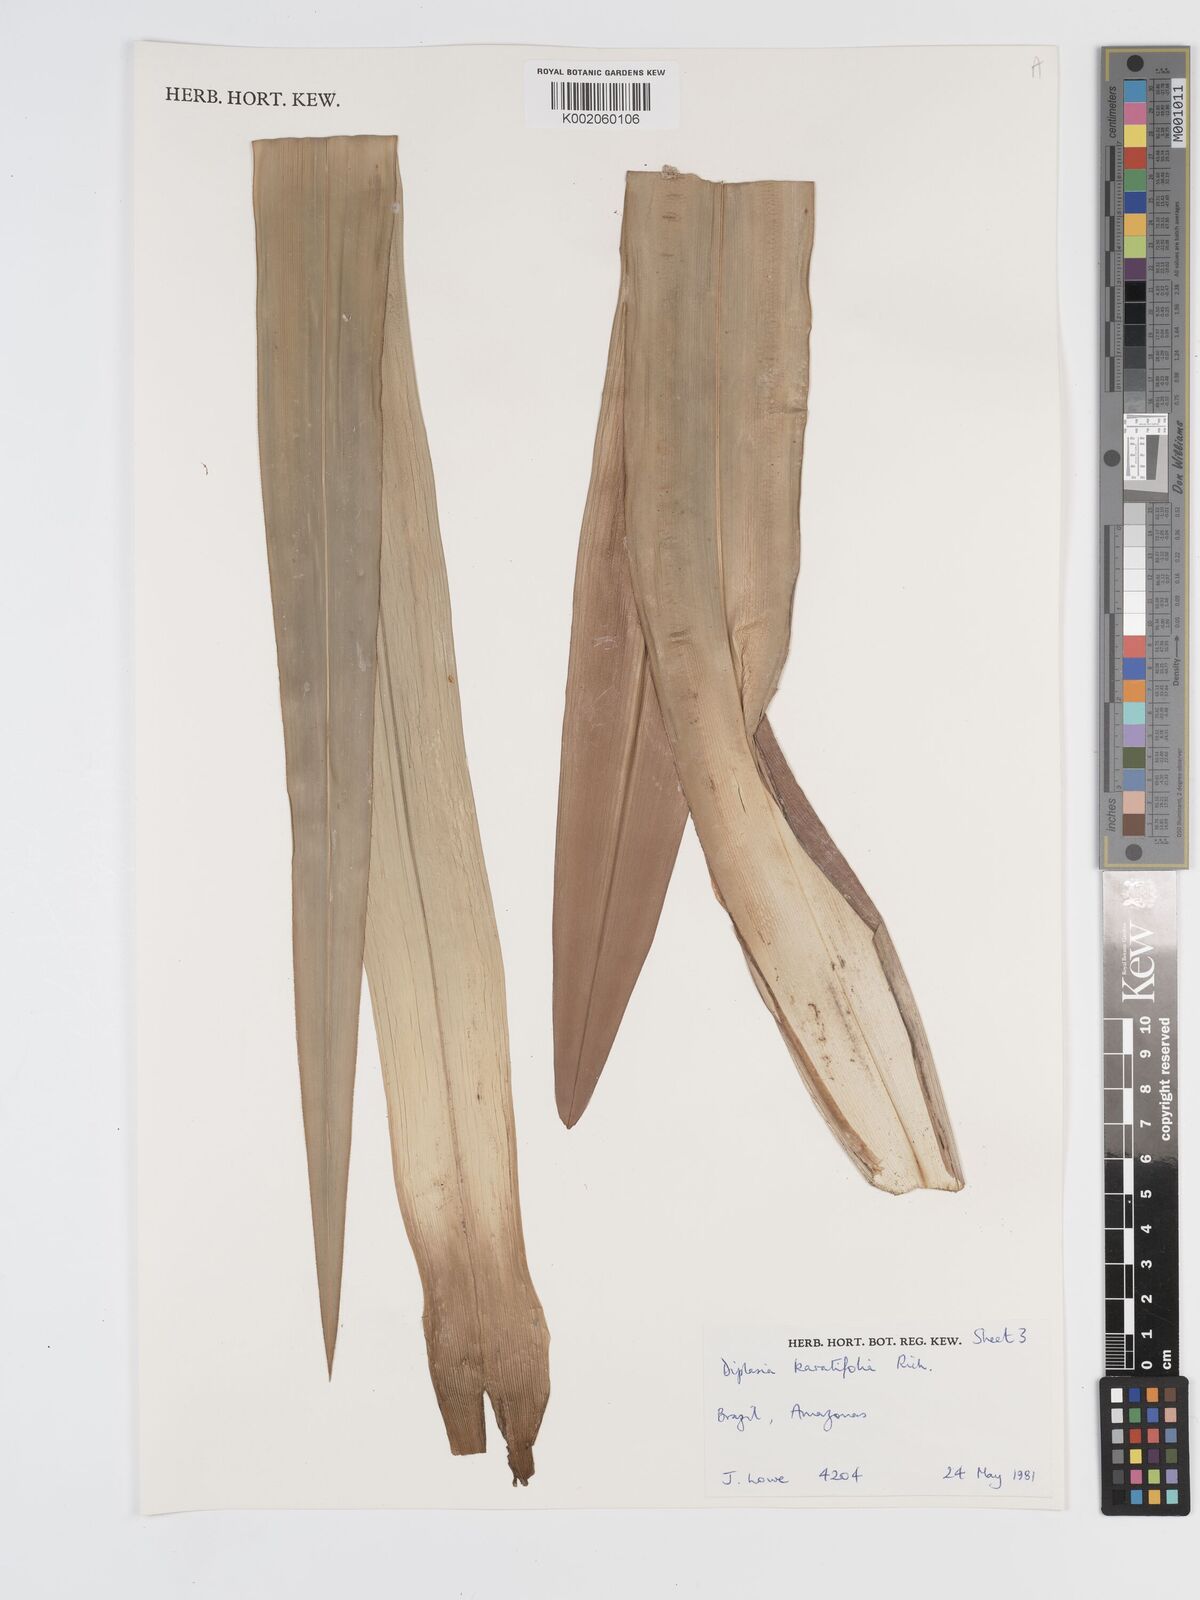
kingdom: Plantae
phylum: Tracheophyta
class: Liliopsida
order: Poales
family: Cyperaceae
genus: Diplasia
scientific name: Diplasia karatifolia
